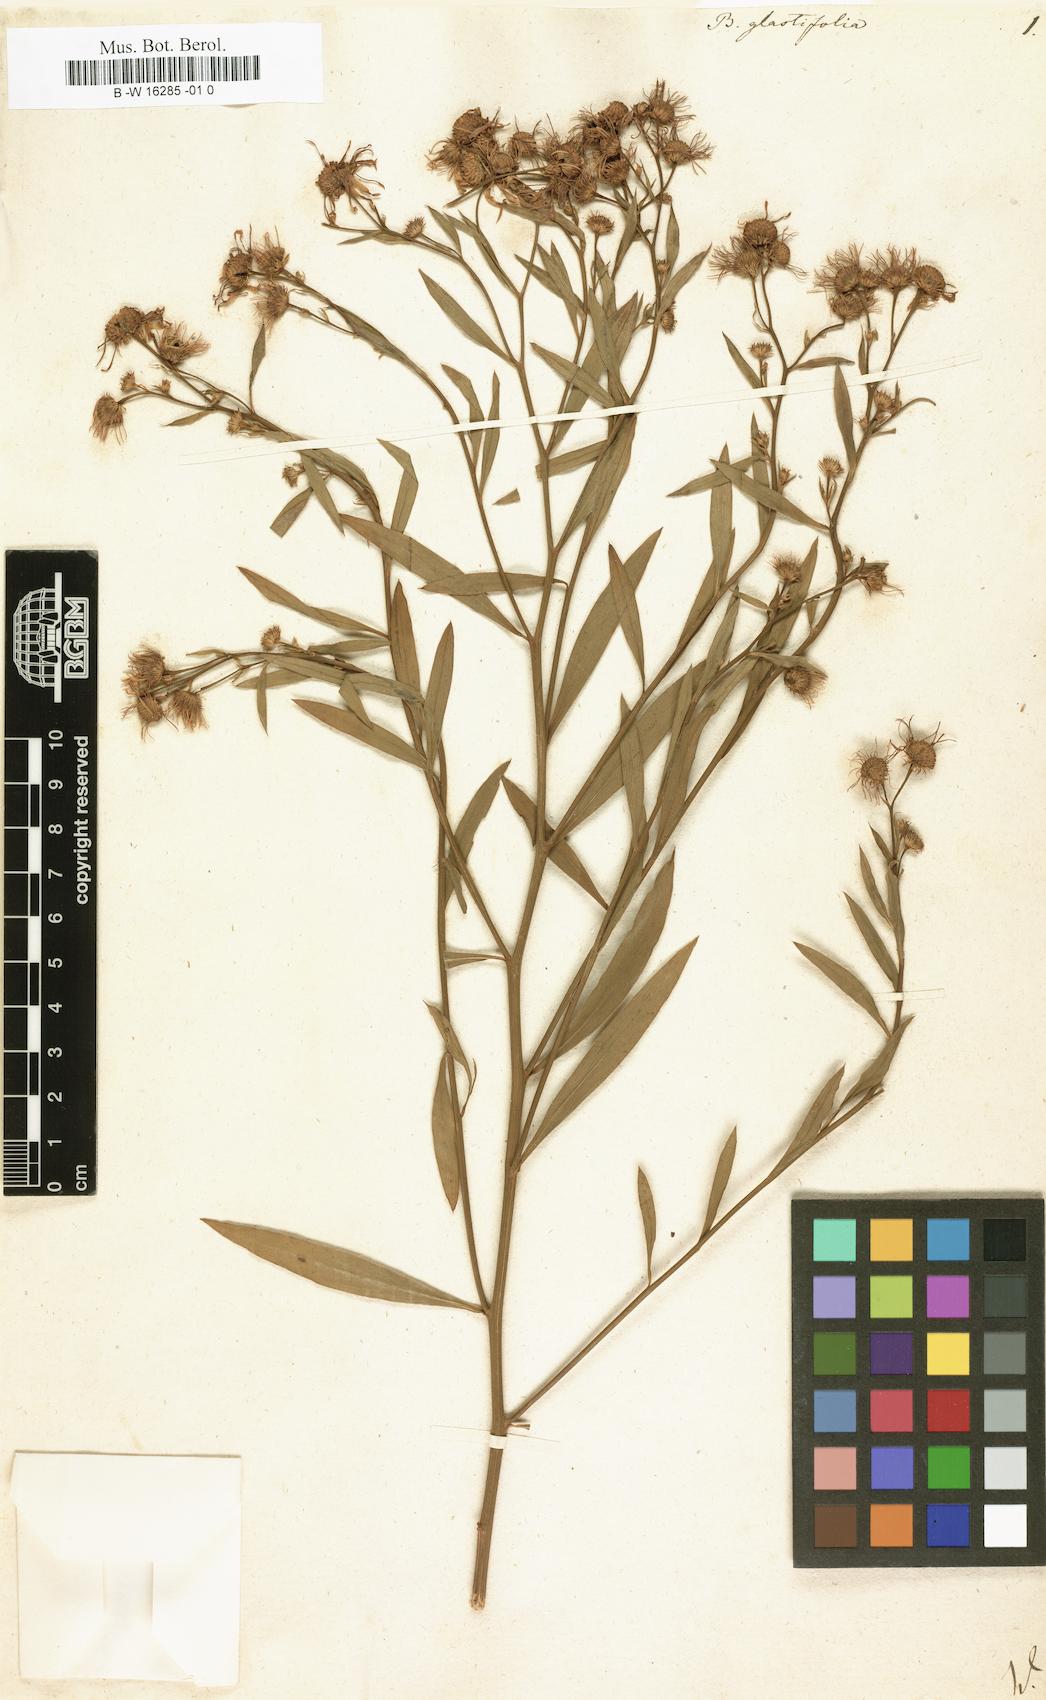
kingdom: Plantae
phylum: Tracheophyta
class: Magnoliopsida
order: Asterales
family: Asteraceae
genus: Boltonia
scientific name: Boltonia glastifolia
